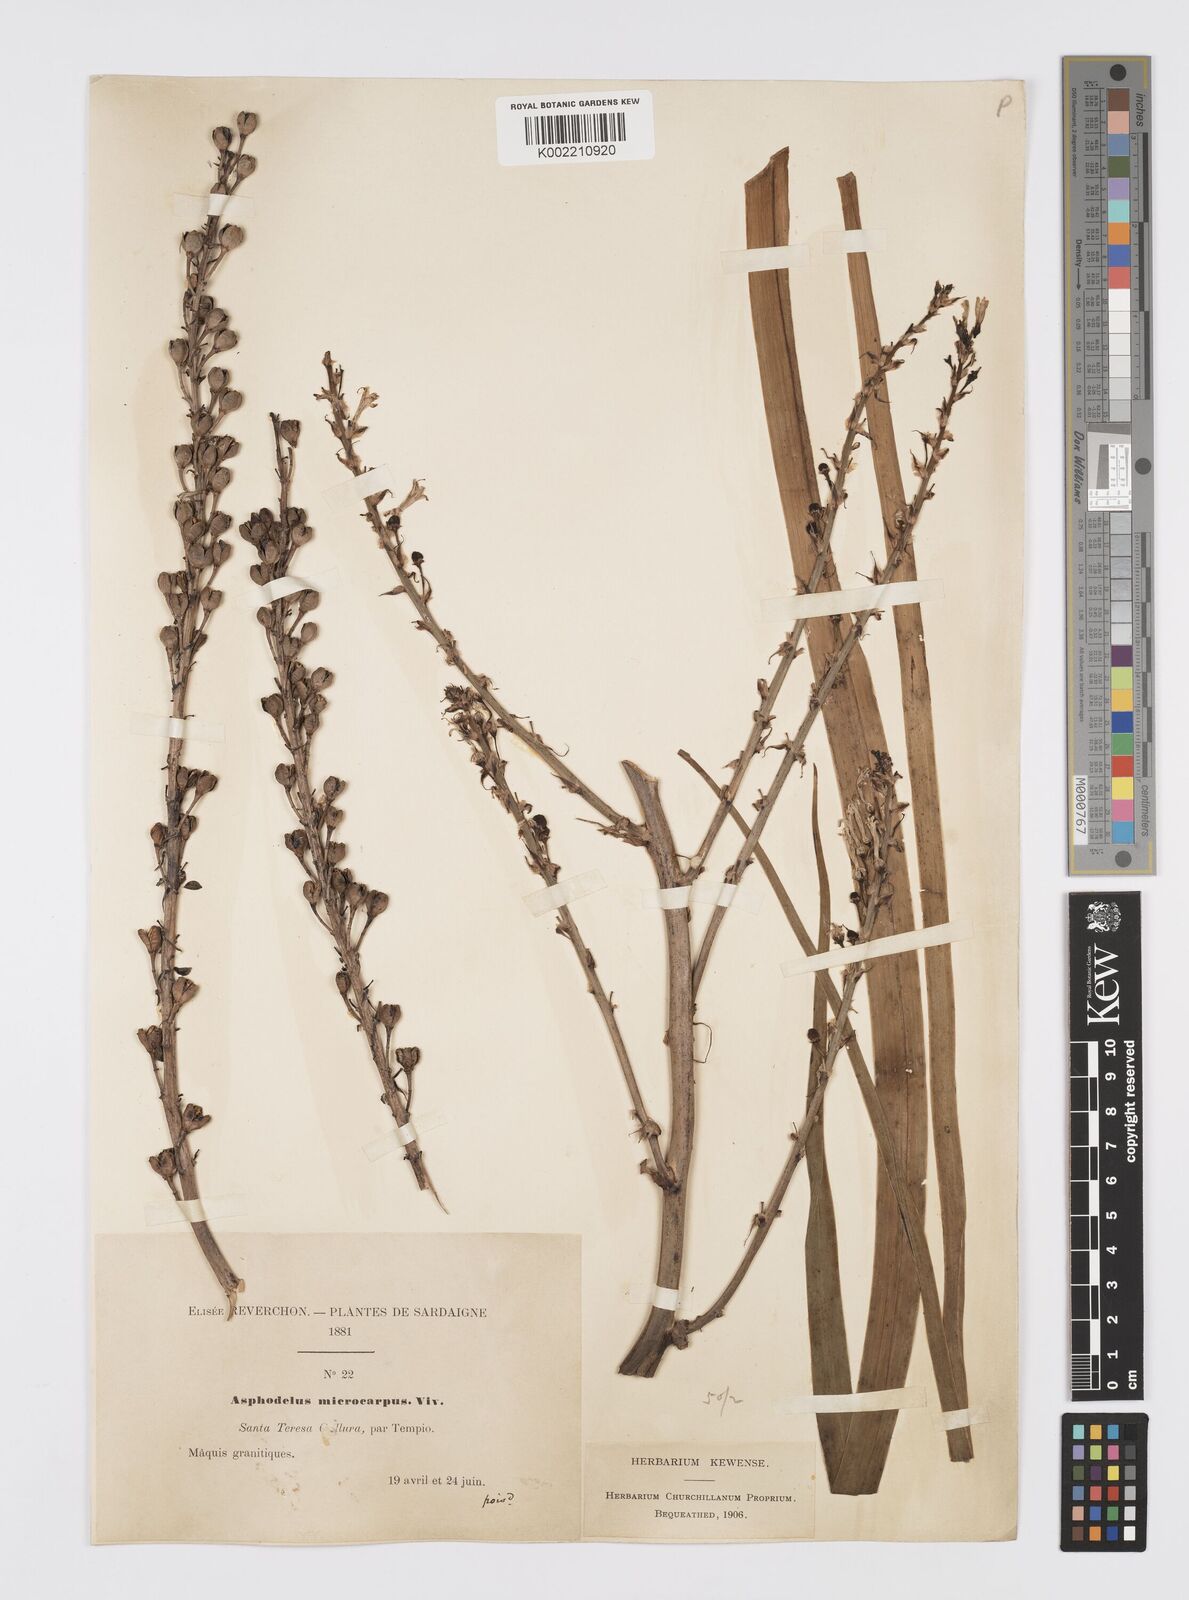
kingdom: Plantae
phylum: Tracheophyta
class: Liliopsida
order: Asparagales
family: Asphodelaceae
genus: Asphodelus
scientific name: Asphodelus ramosus
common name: Silverrod
